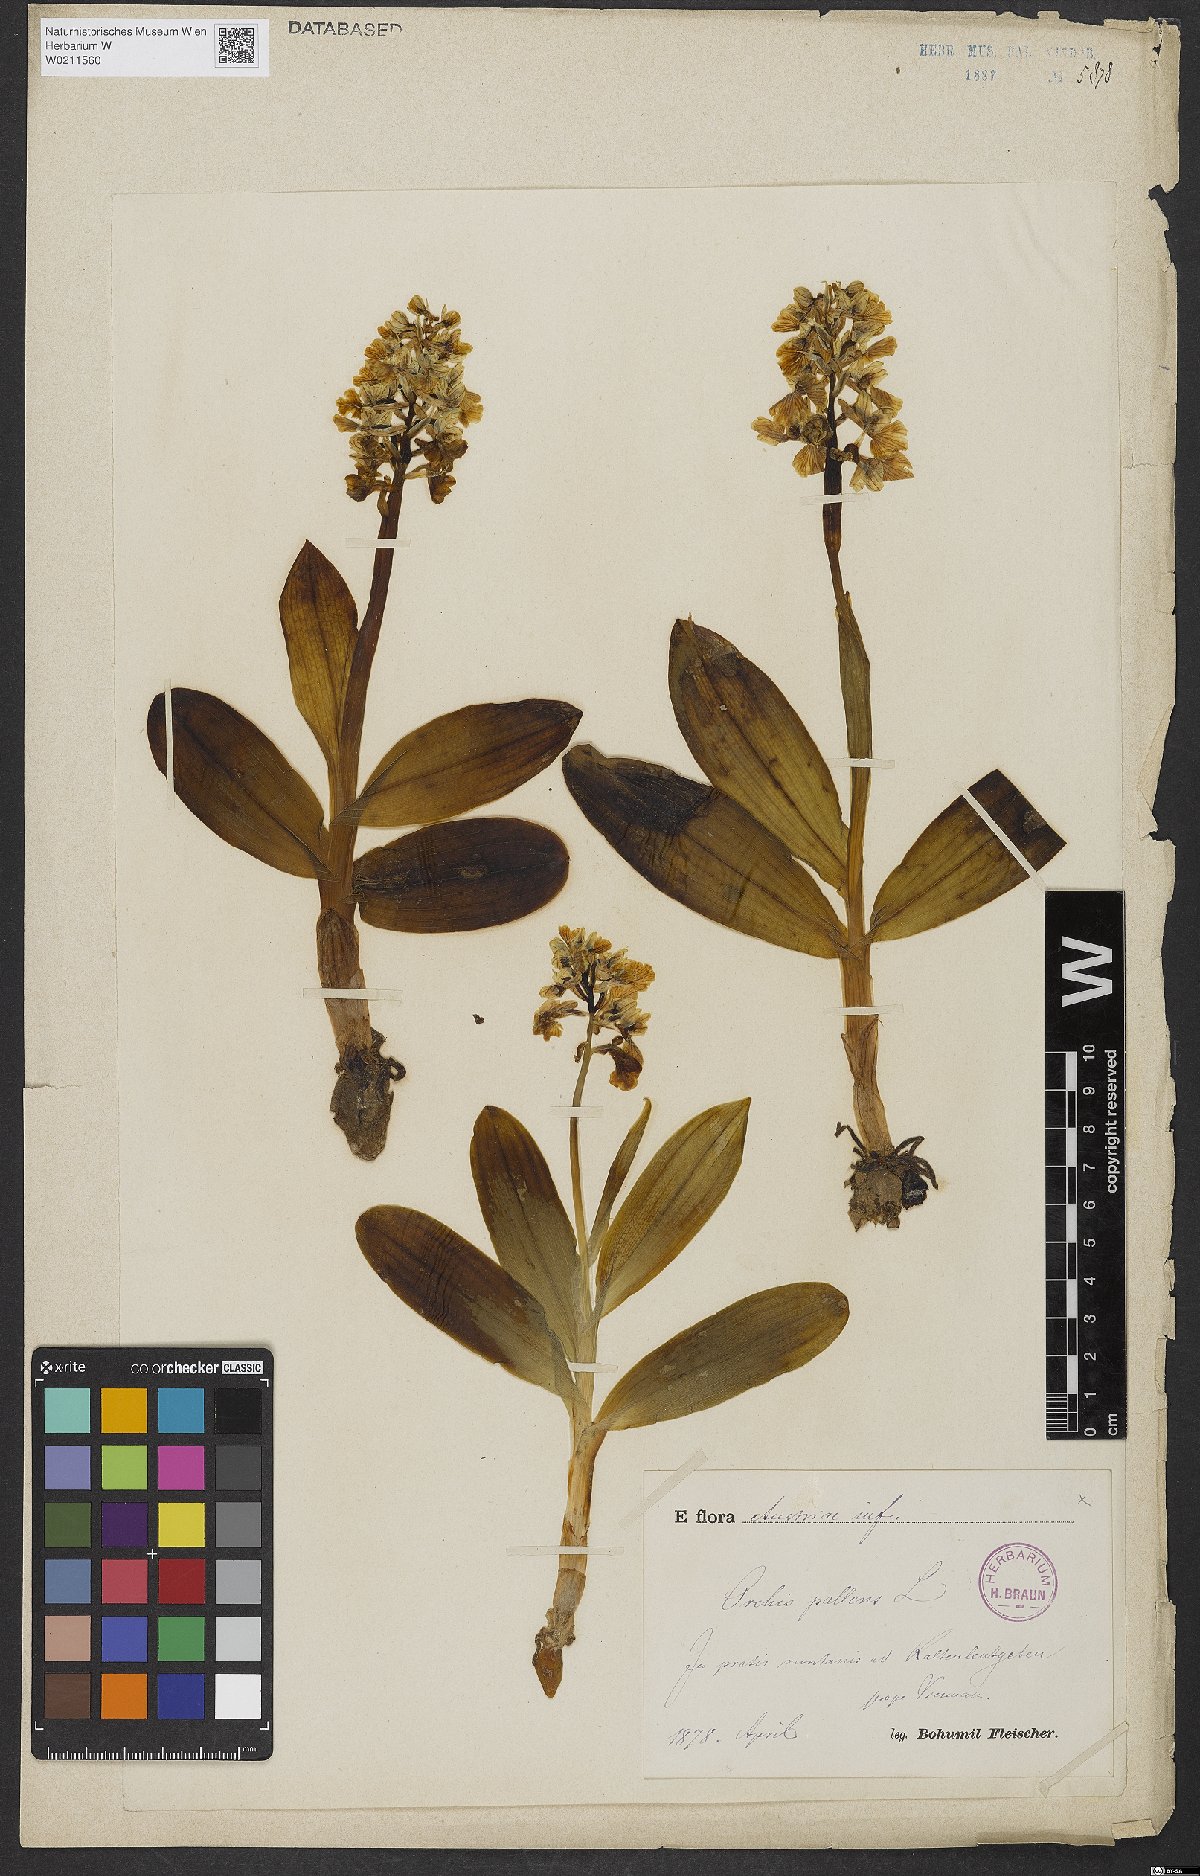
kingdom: Plantae
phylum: Tracheophyta
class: Liliopsida
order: Asparagales
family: Orchidaceae
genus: Orchis
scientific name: Orchis pallens
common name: Pale-flowered orchid
